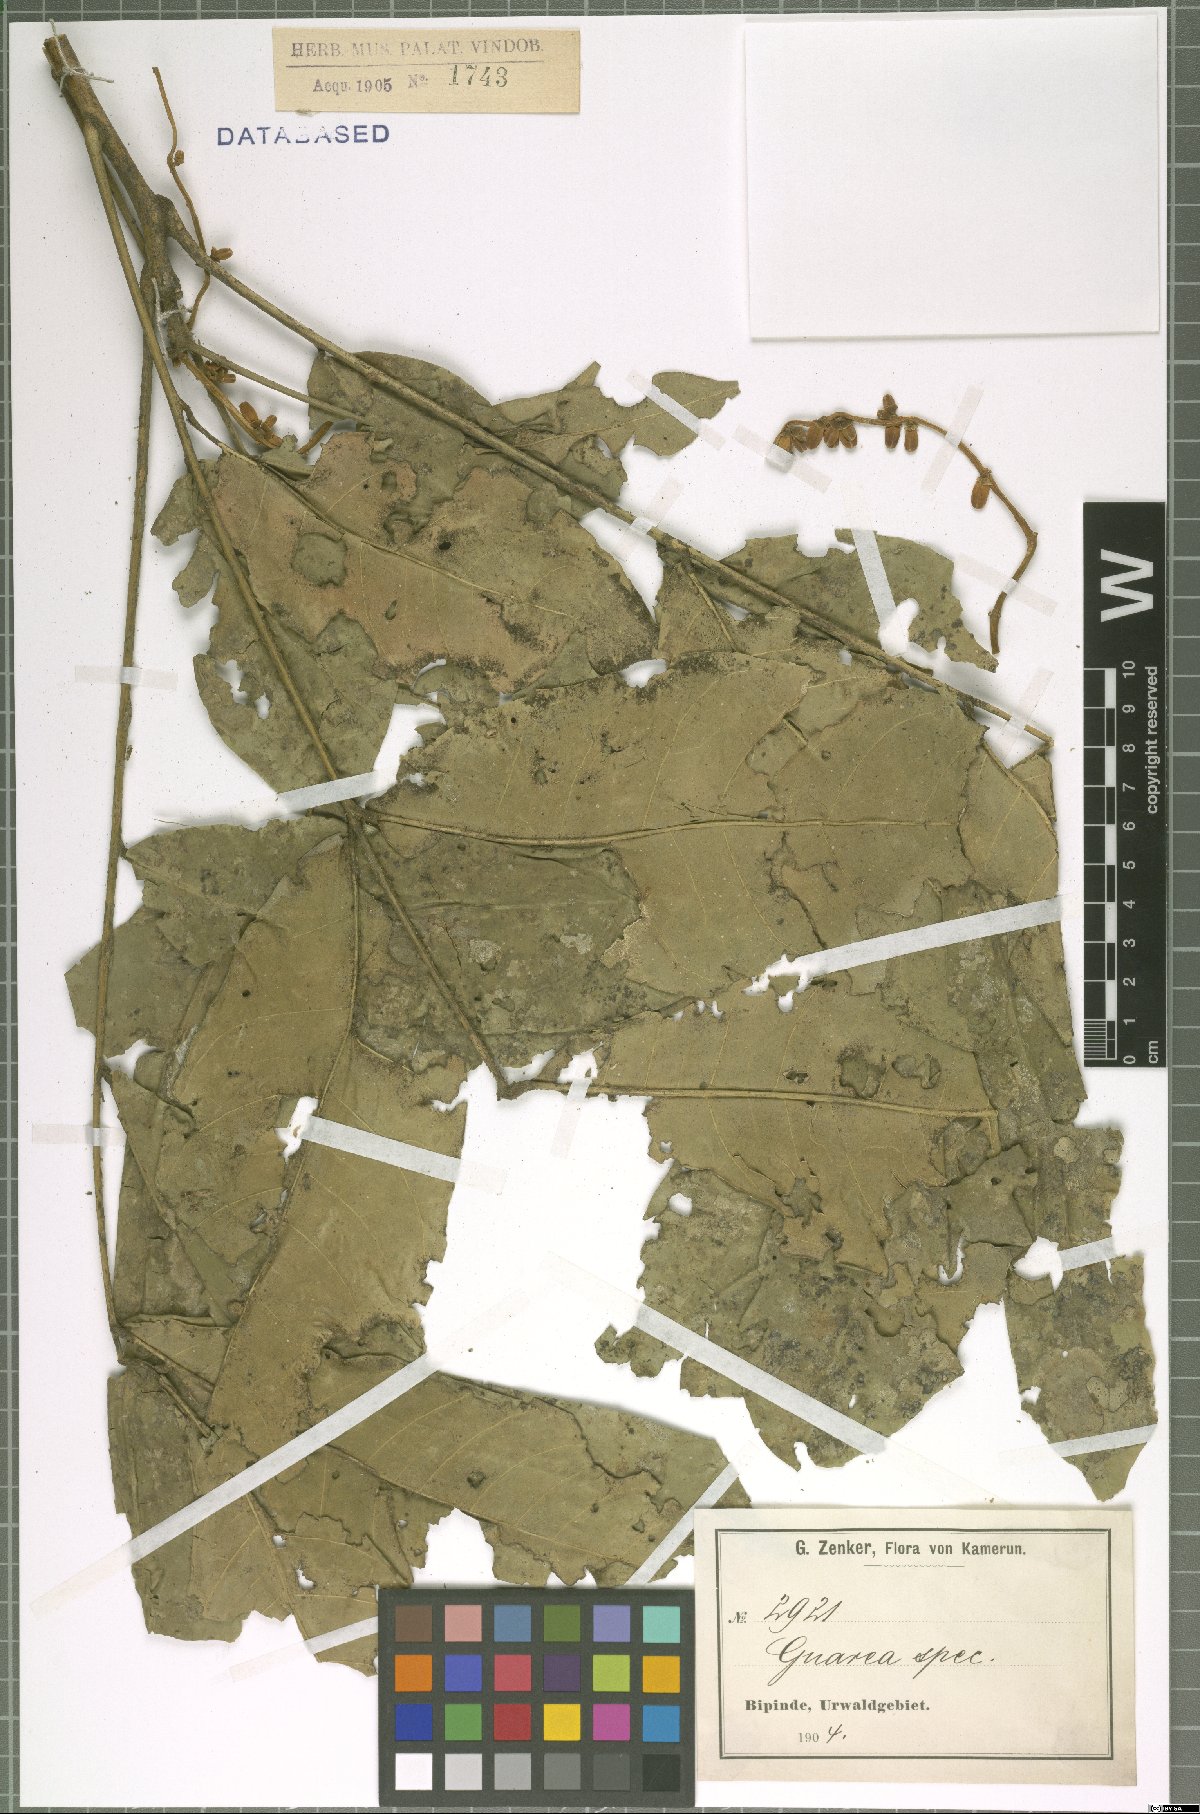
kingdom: Plantae
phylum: Tracheophyta
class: Magnoliopsida
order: Sapindales
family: Meliaceae
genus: Guarea
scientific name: Guarea
